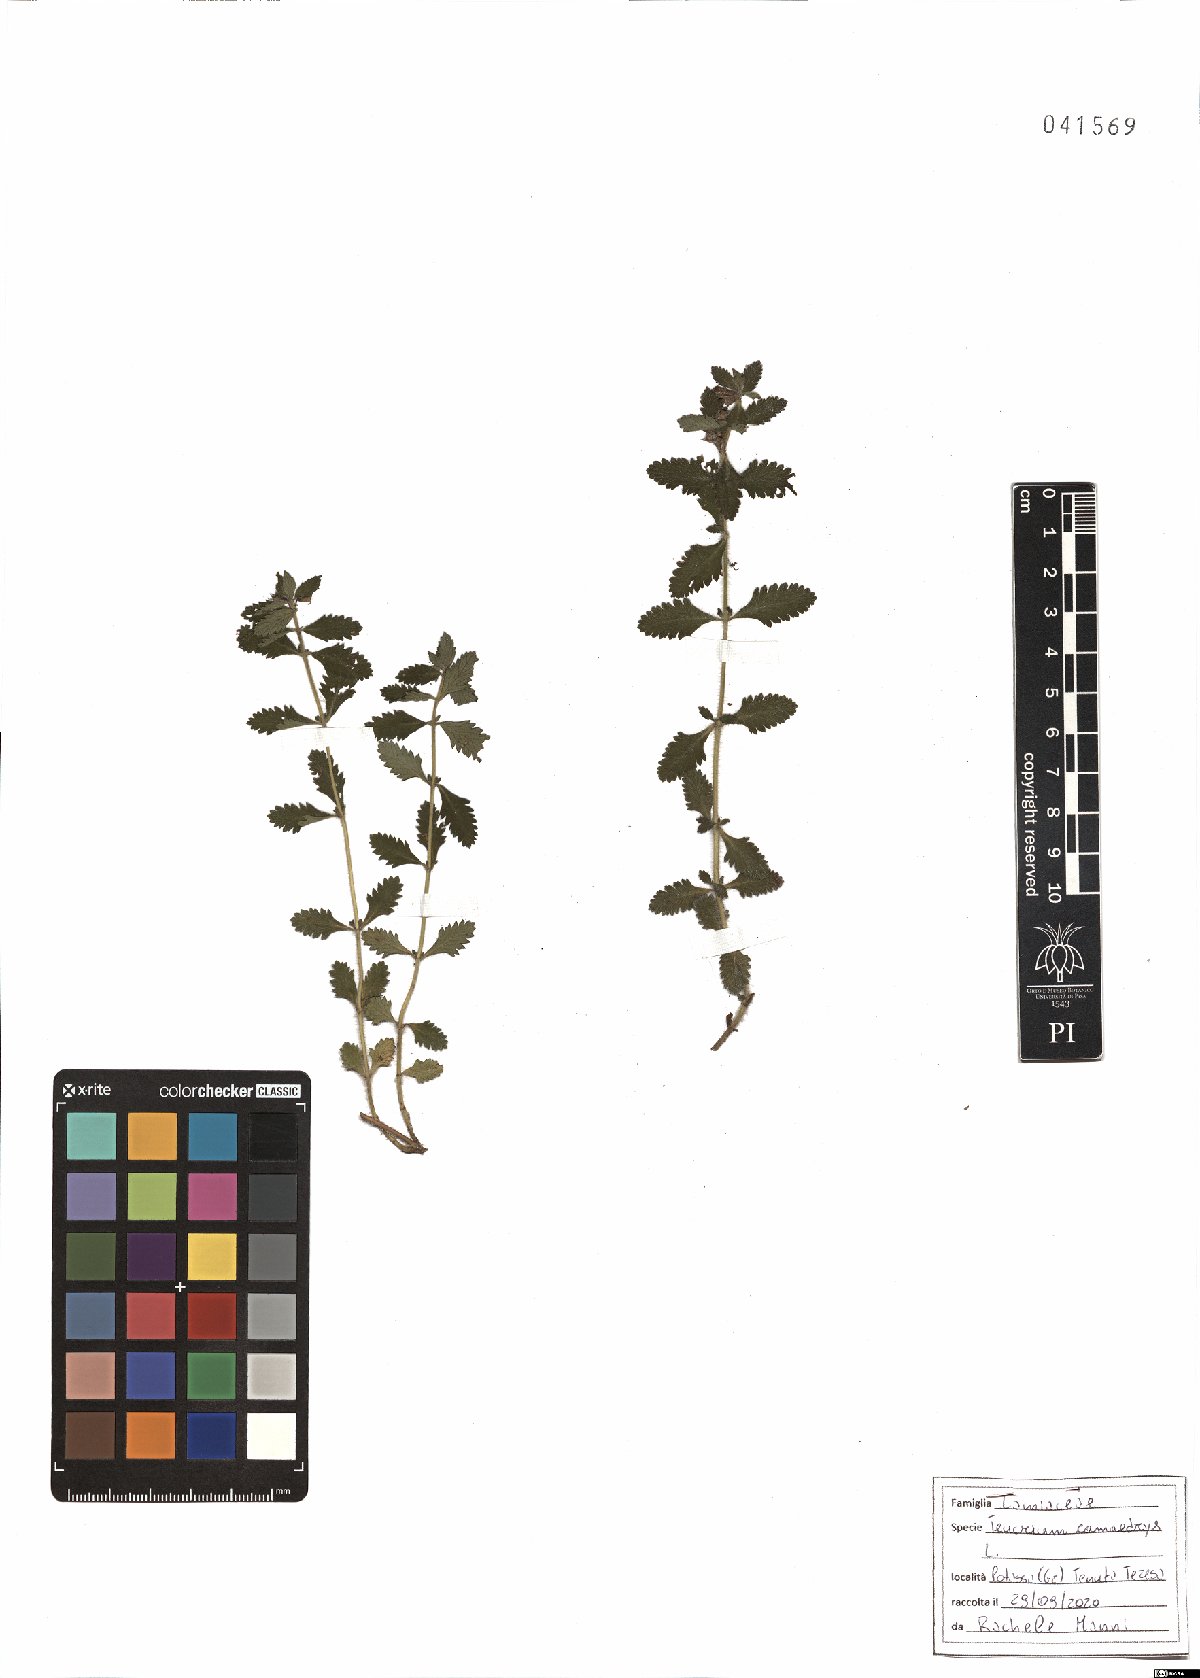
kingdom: Plantae
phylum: Tracheophyta
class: Magnoliopsida
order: Lamiales
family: Lamiaceae
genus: Teucrium
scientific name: Teucrium chamaedrys
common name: Wall germander
